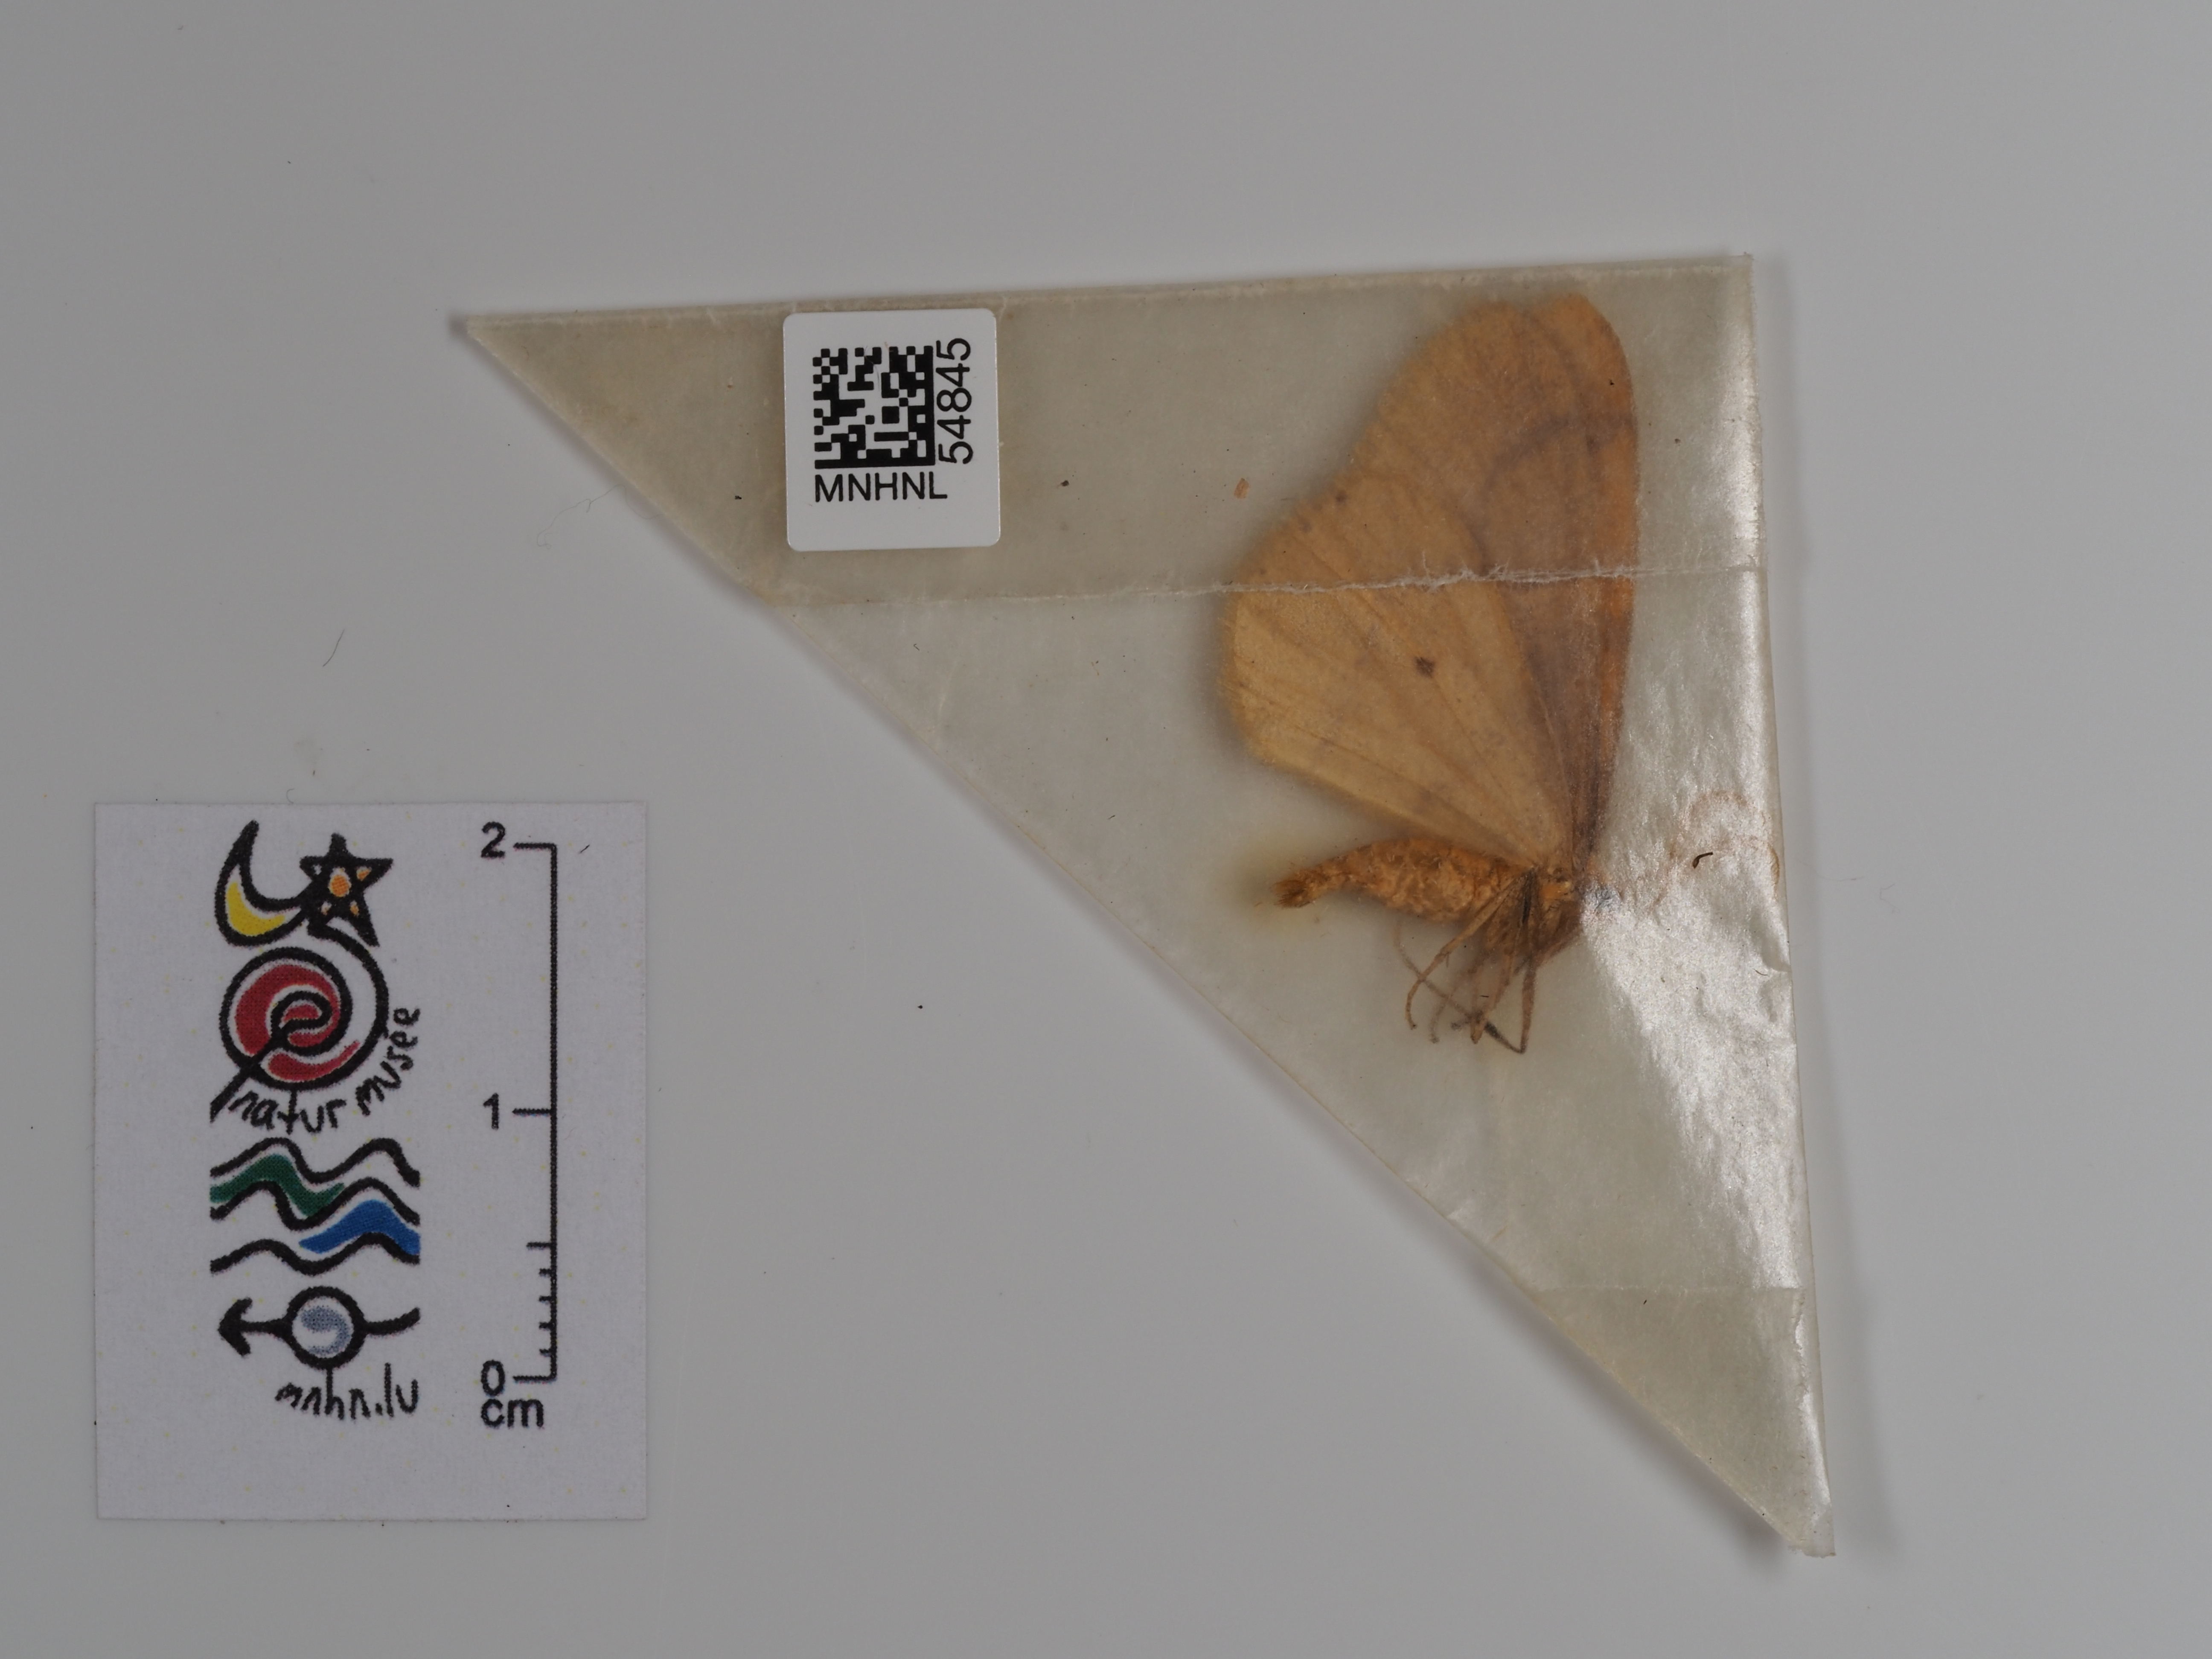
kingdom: Animalia
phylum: Arthropoda
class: Insecta
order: Lepidoptera
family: Geometridae
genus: Agriopis
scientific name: Agriopis aurantiaria
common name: Scarce umber
